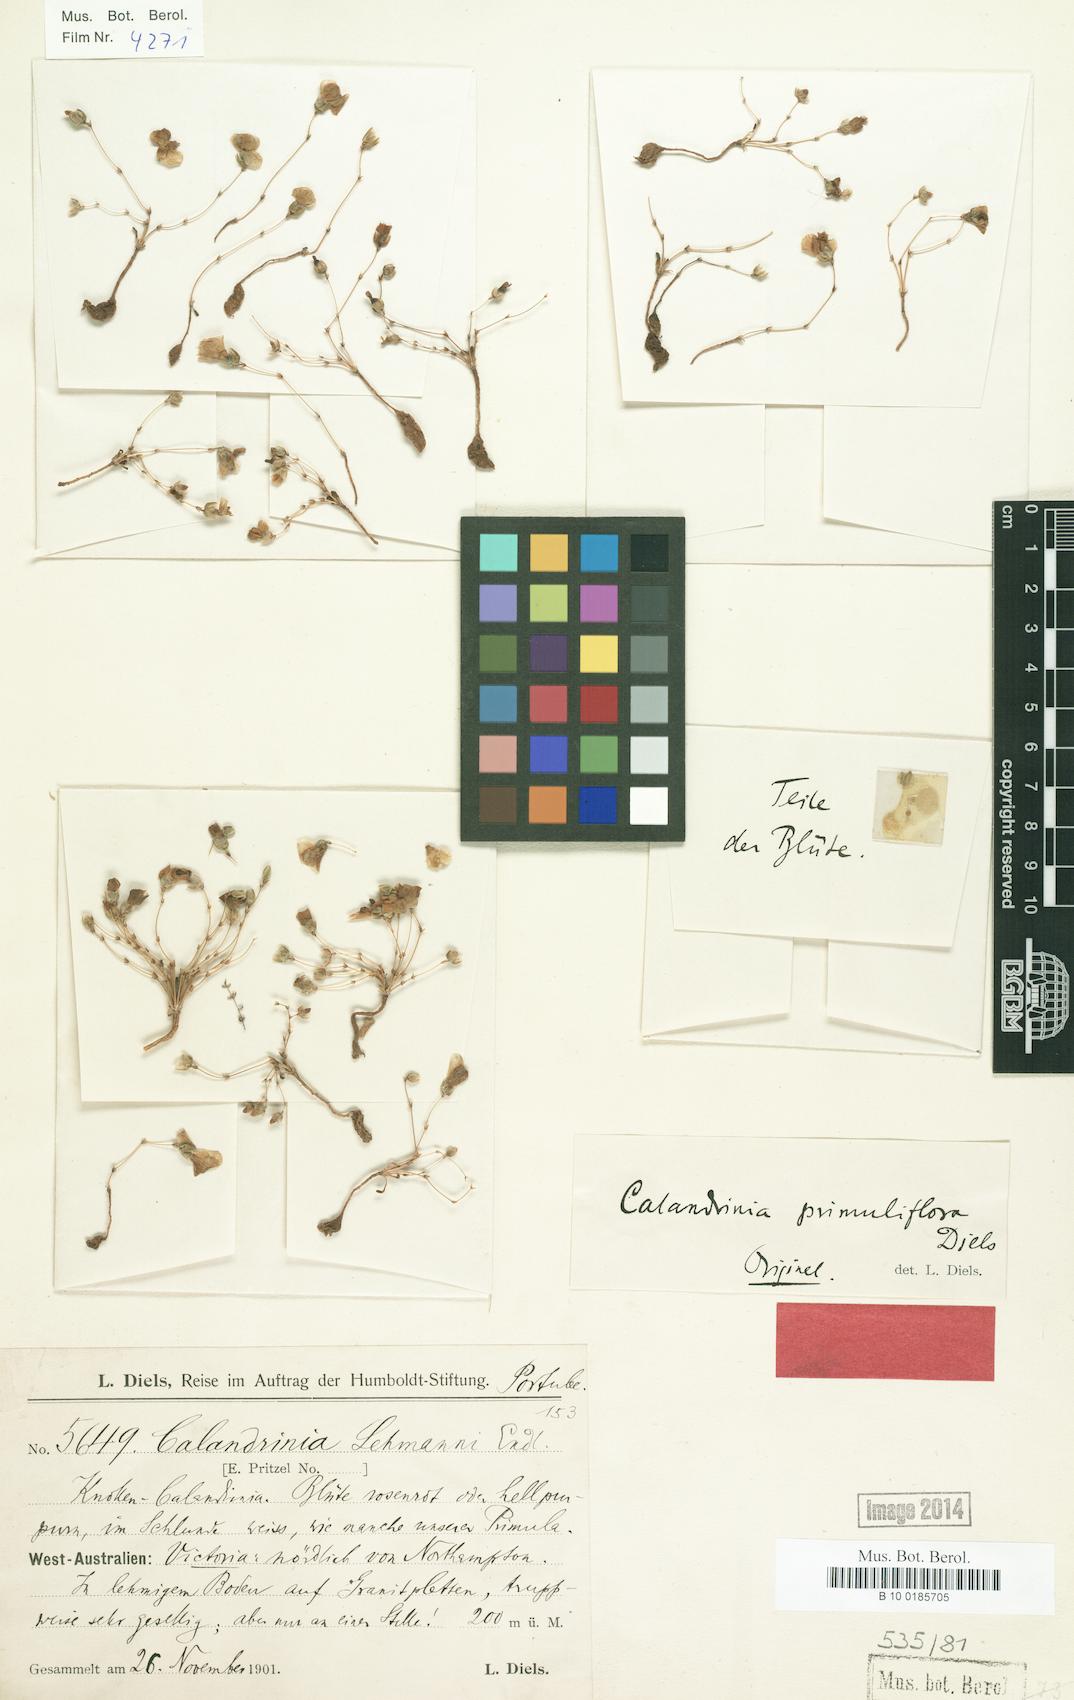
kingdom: Plantae
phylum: Tracheophyta
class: Magnoliopsida
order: Caryophyllales
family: Montiaceae
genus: Rumicastrum
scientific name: Rumicastrum lehmannii
